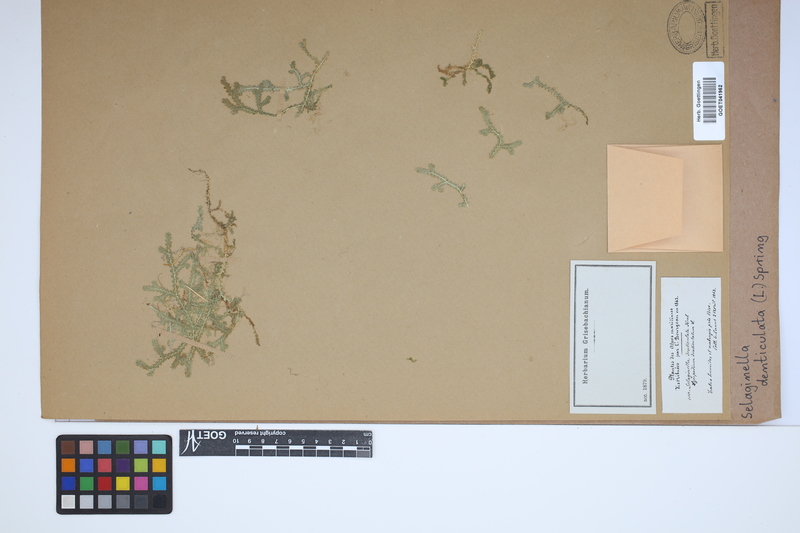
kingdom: Plantae
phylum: Tracheophyta
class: Lycopodiopsida
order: Selaginellales
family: Selaginellaceae
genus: Selaginella
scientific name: Selaginella denticulata
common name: Toothed-leaved clubmoss
